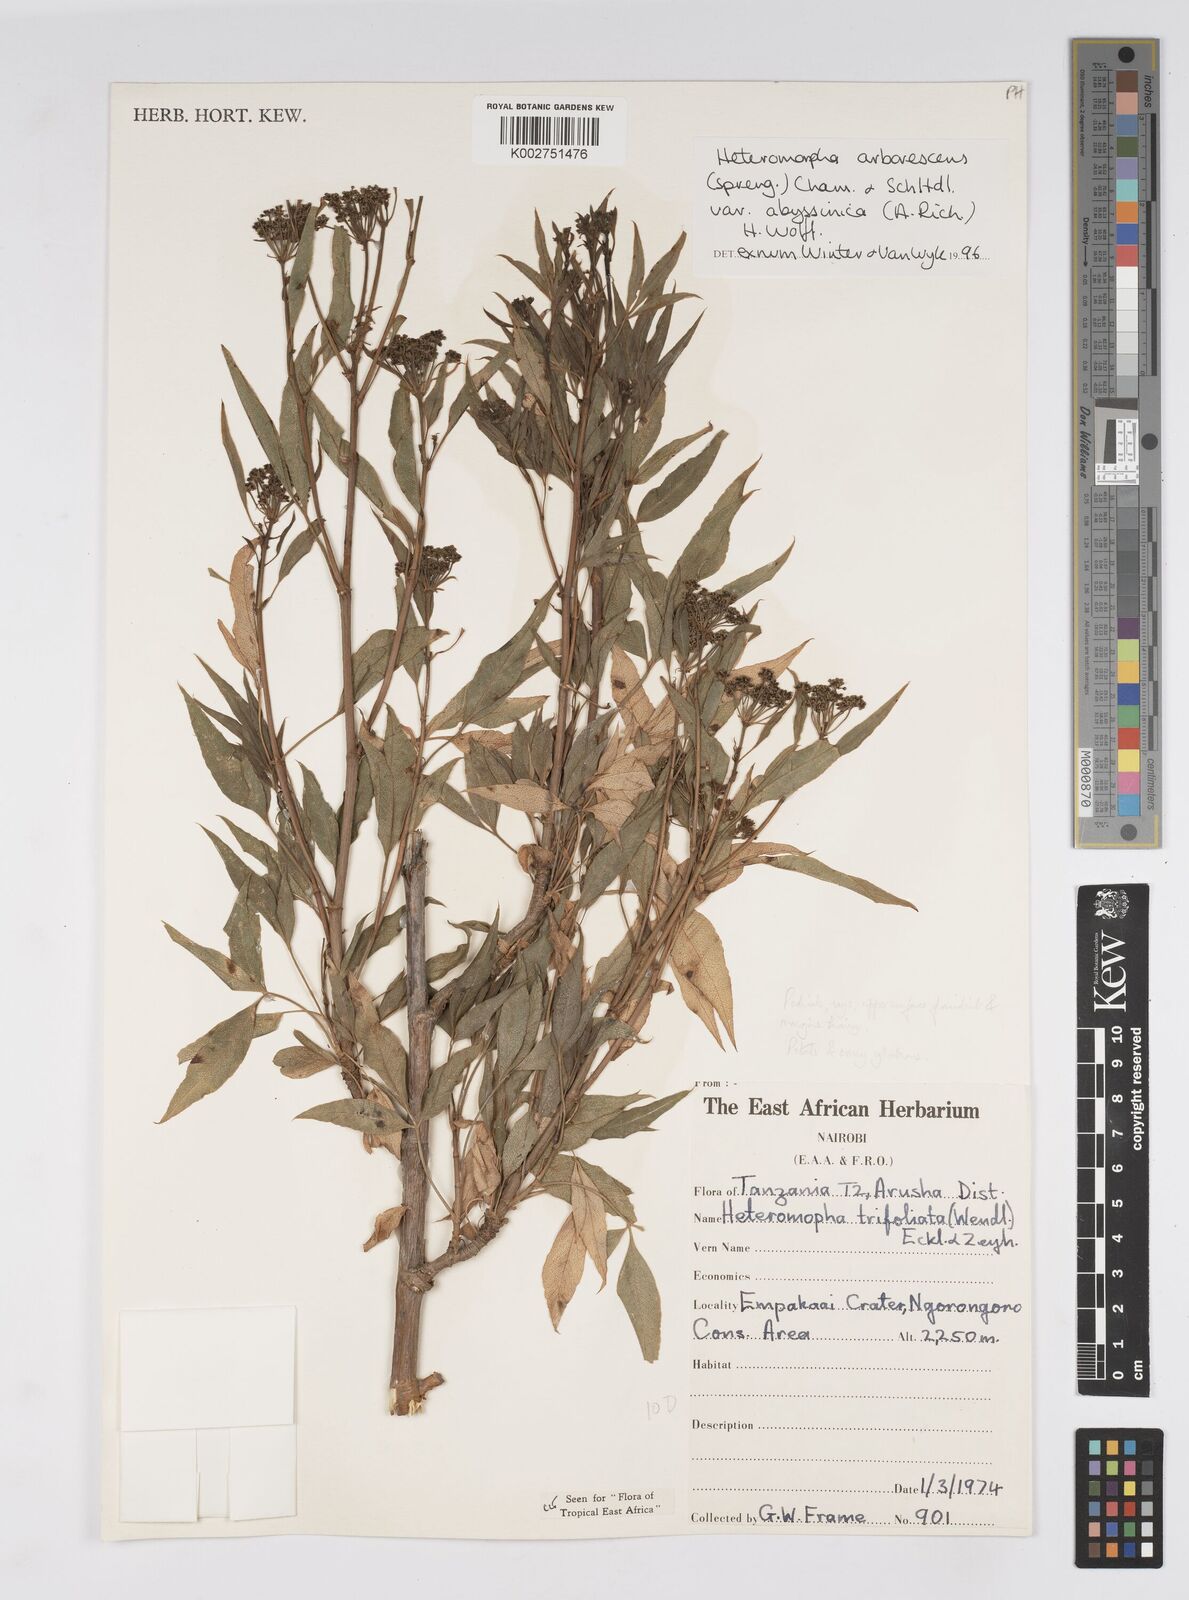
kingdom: Plantae
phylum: Tracheophyta
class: Magnoliopsida
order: Apiales
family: Apiaceae
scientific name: Apiaceae
